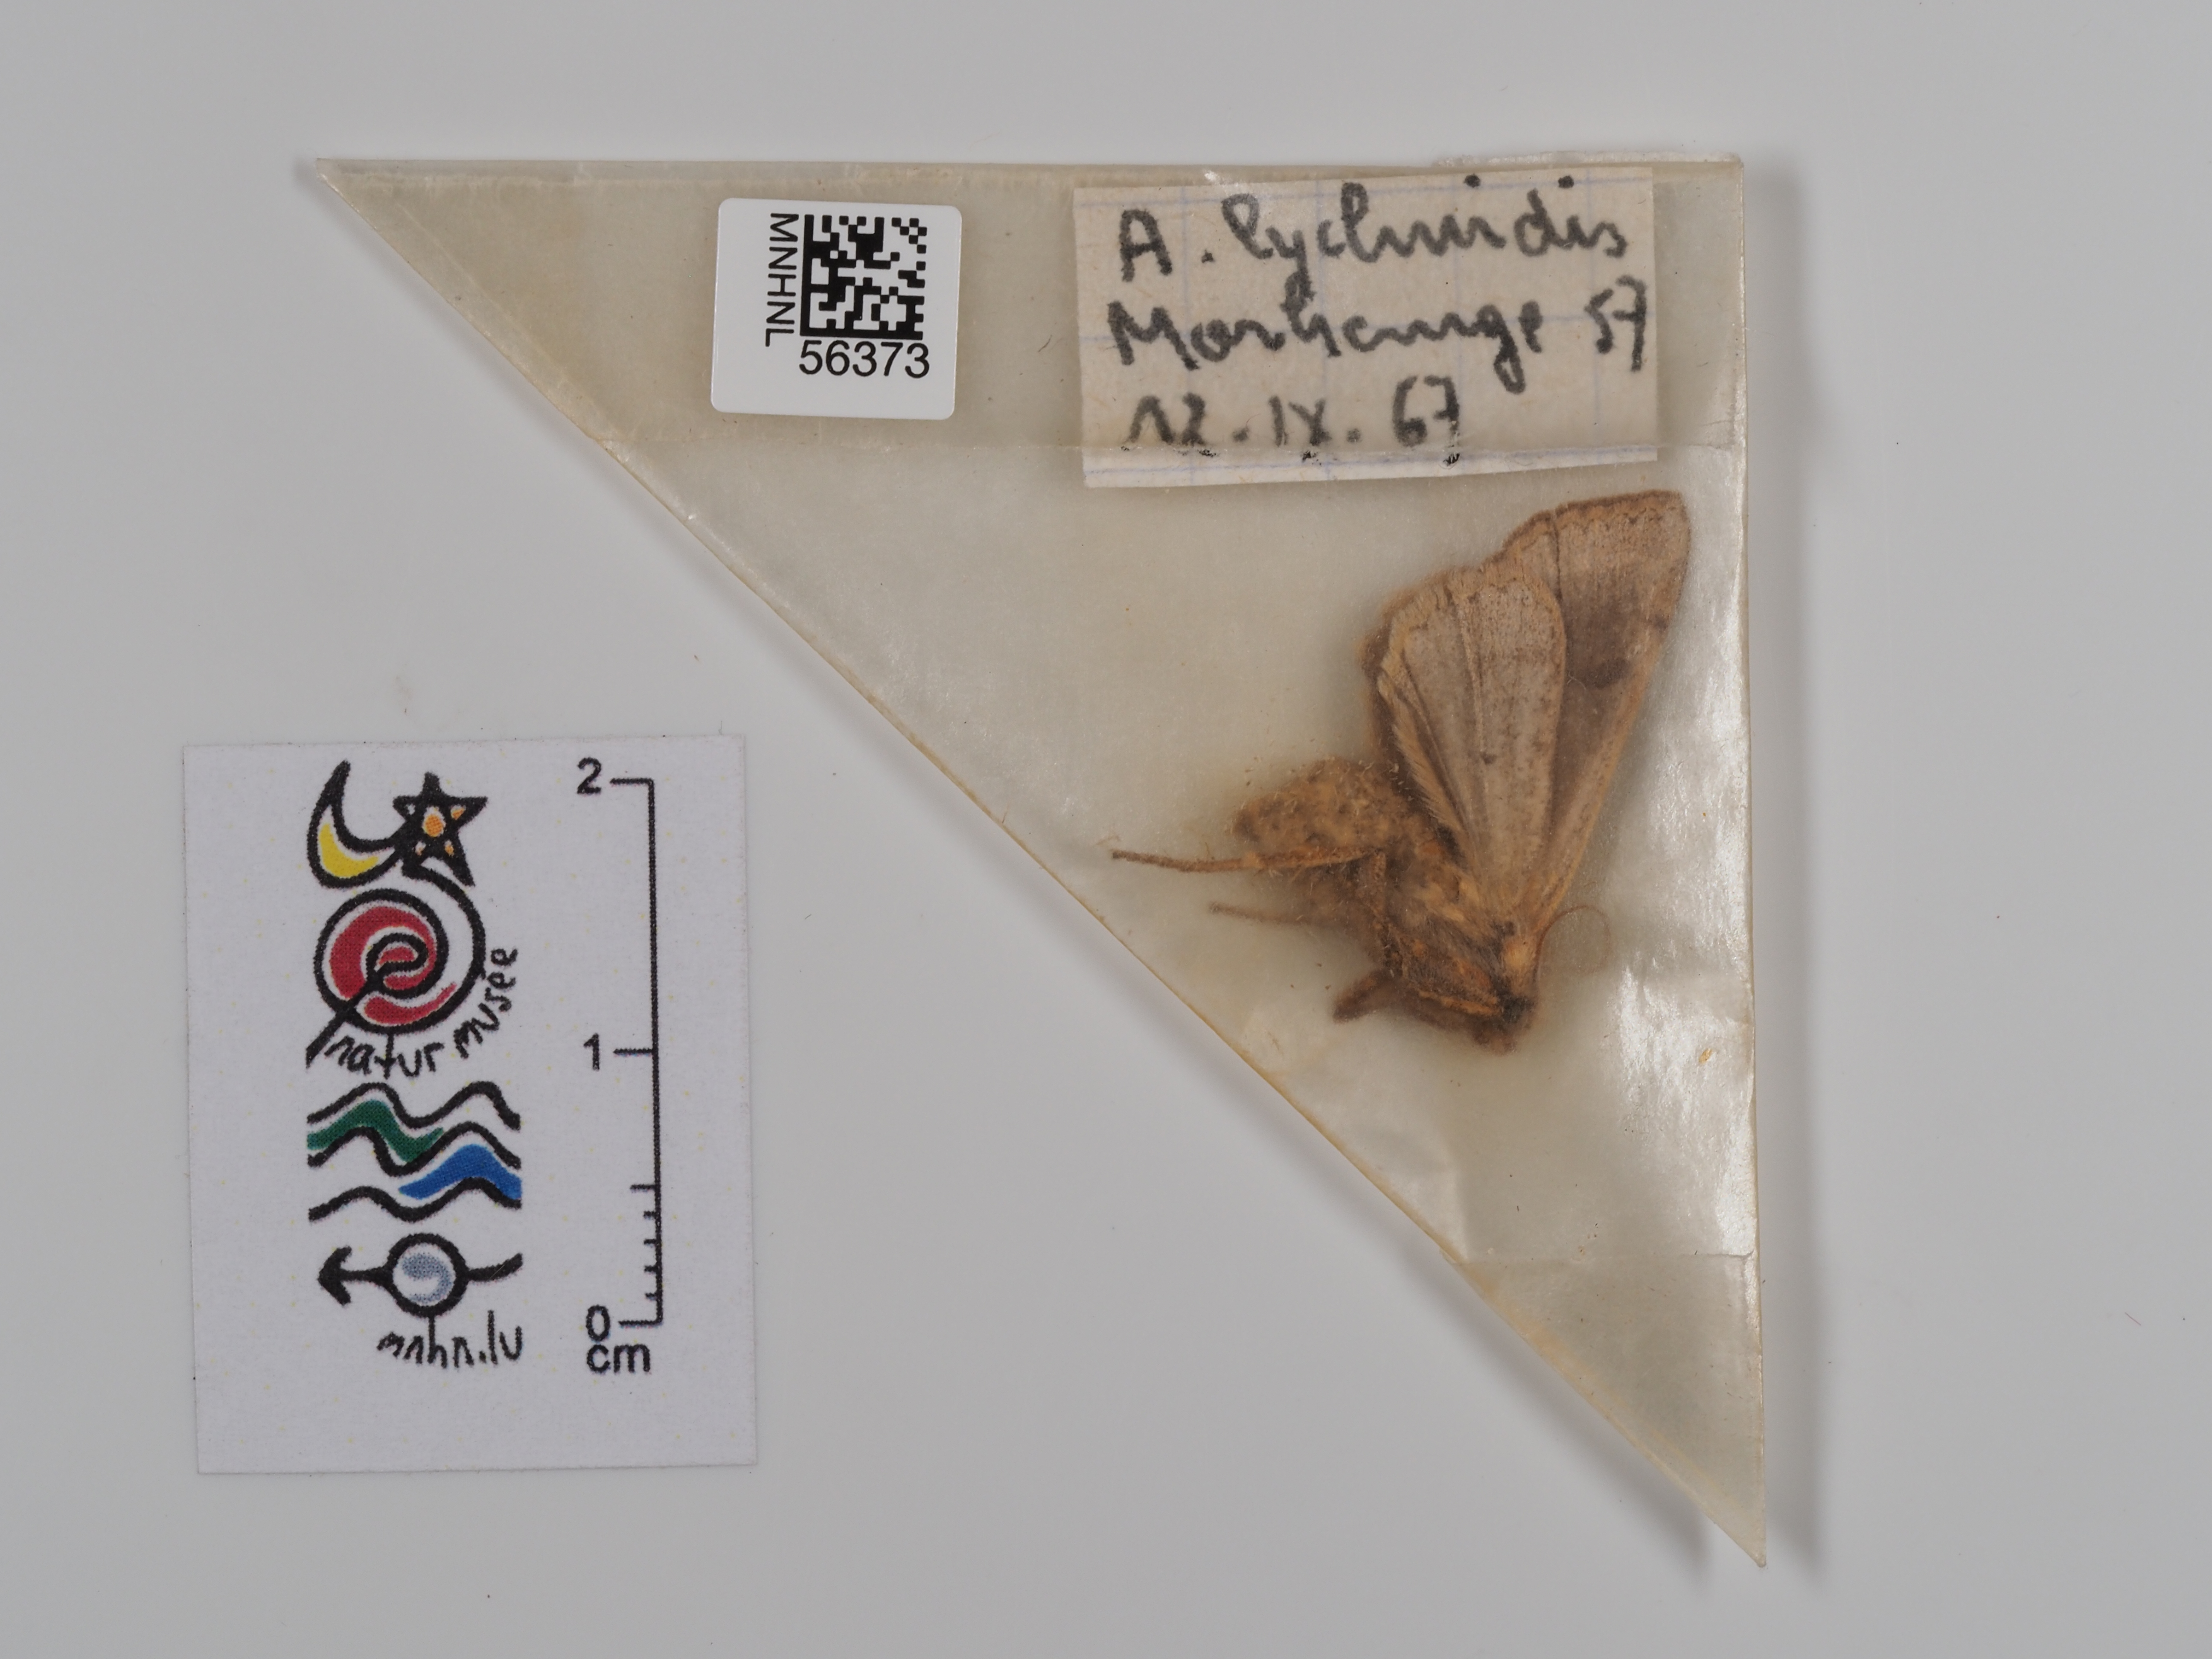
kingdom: Animalia
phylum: Arthropoda
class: Insecta
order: Lepidoptera
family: Noctuidae
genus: Agrochola
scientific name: Agrochola lychnidis
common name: Beaded chestnut
